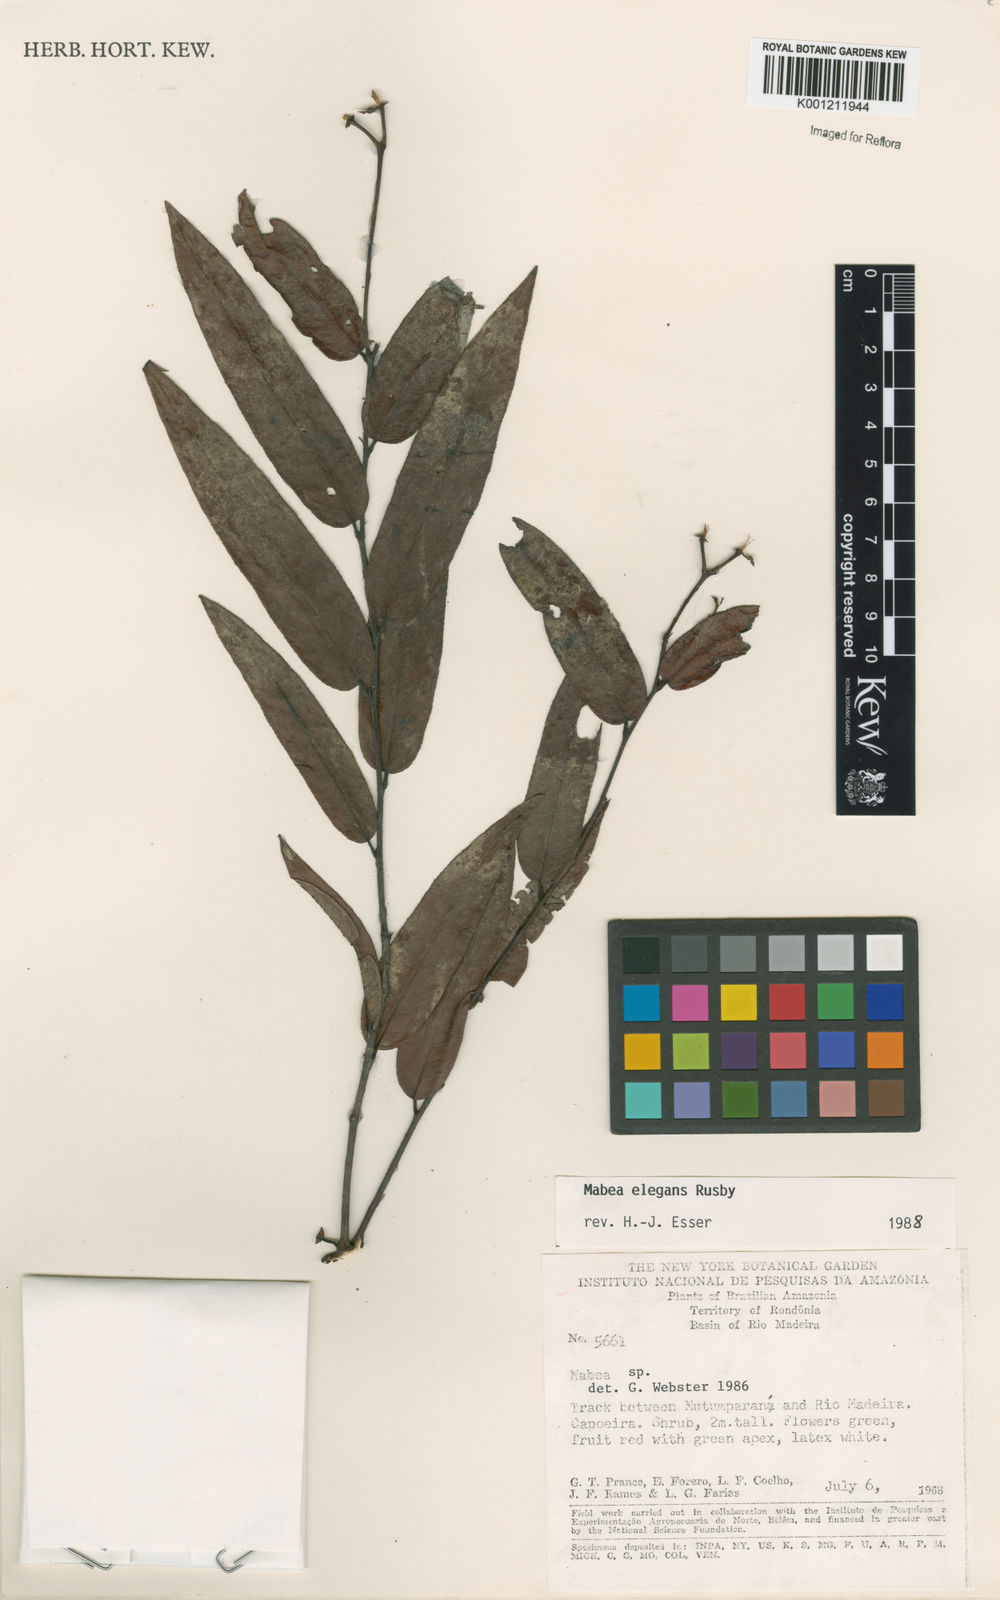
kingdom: Plantae
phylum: Tracheophyta
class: Magnoliopsida
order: Malpighiales
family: Euphorbiaceae
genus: Mabea
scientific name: Mabea elegans
